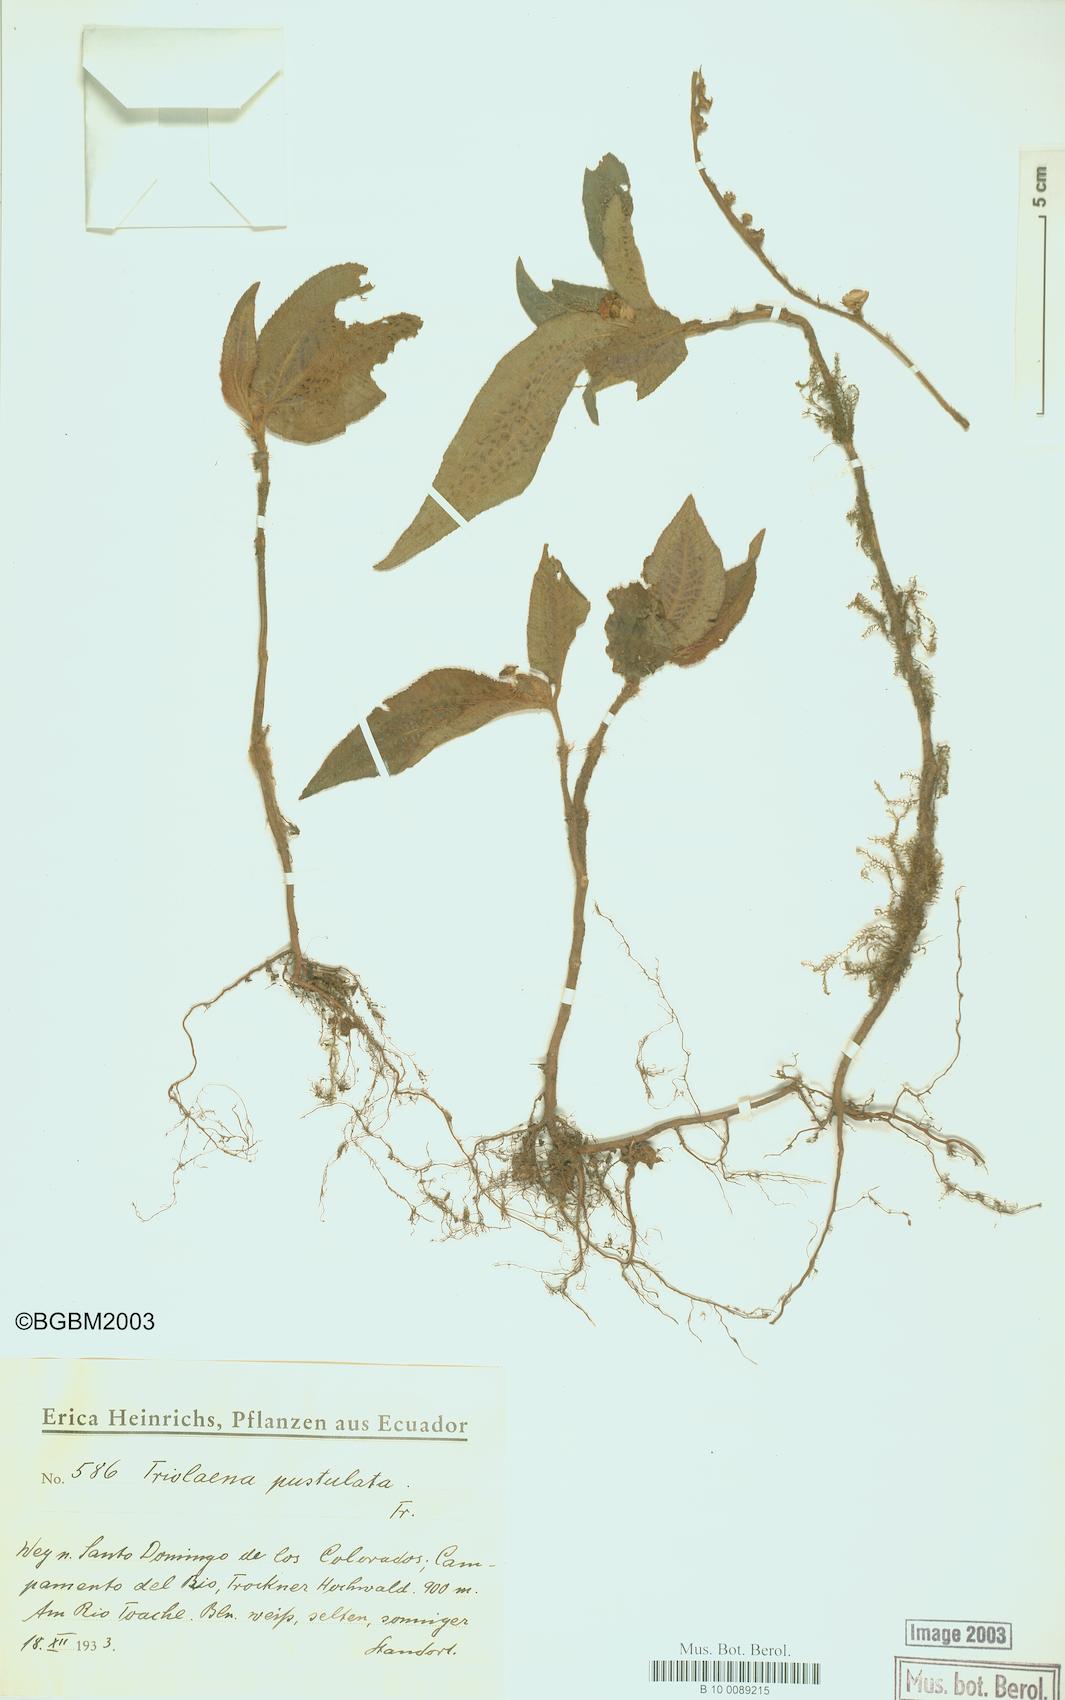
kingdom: Plantae
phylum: Tracheophyta
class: Magnoliopsida
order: Myrtales
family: Melastomataceae
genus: Triolena
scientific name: Triolena pustulata
